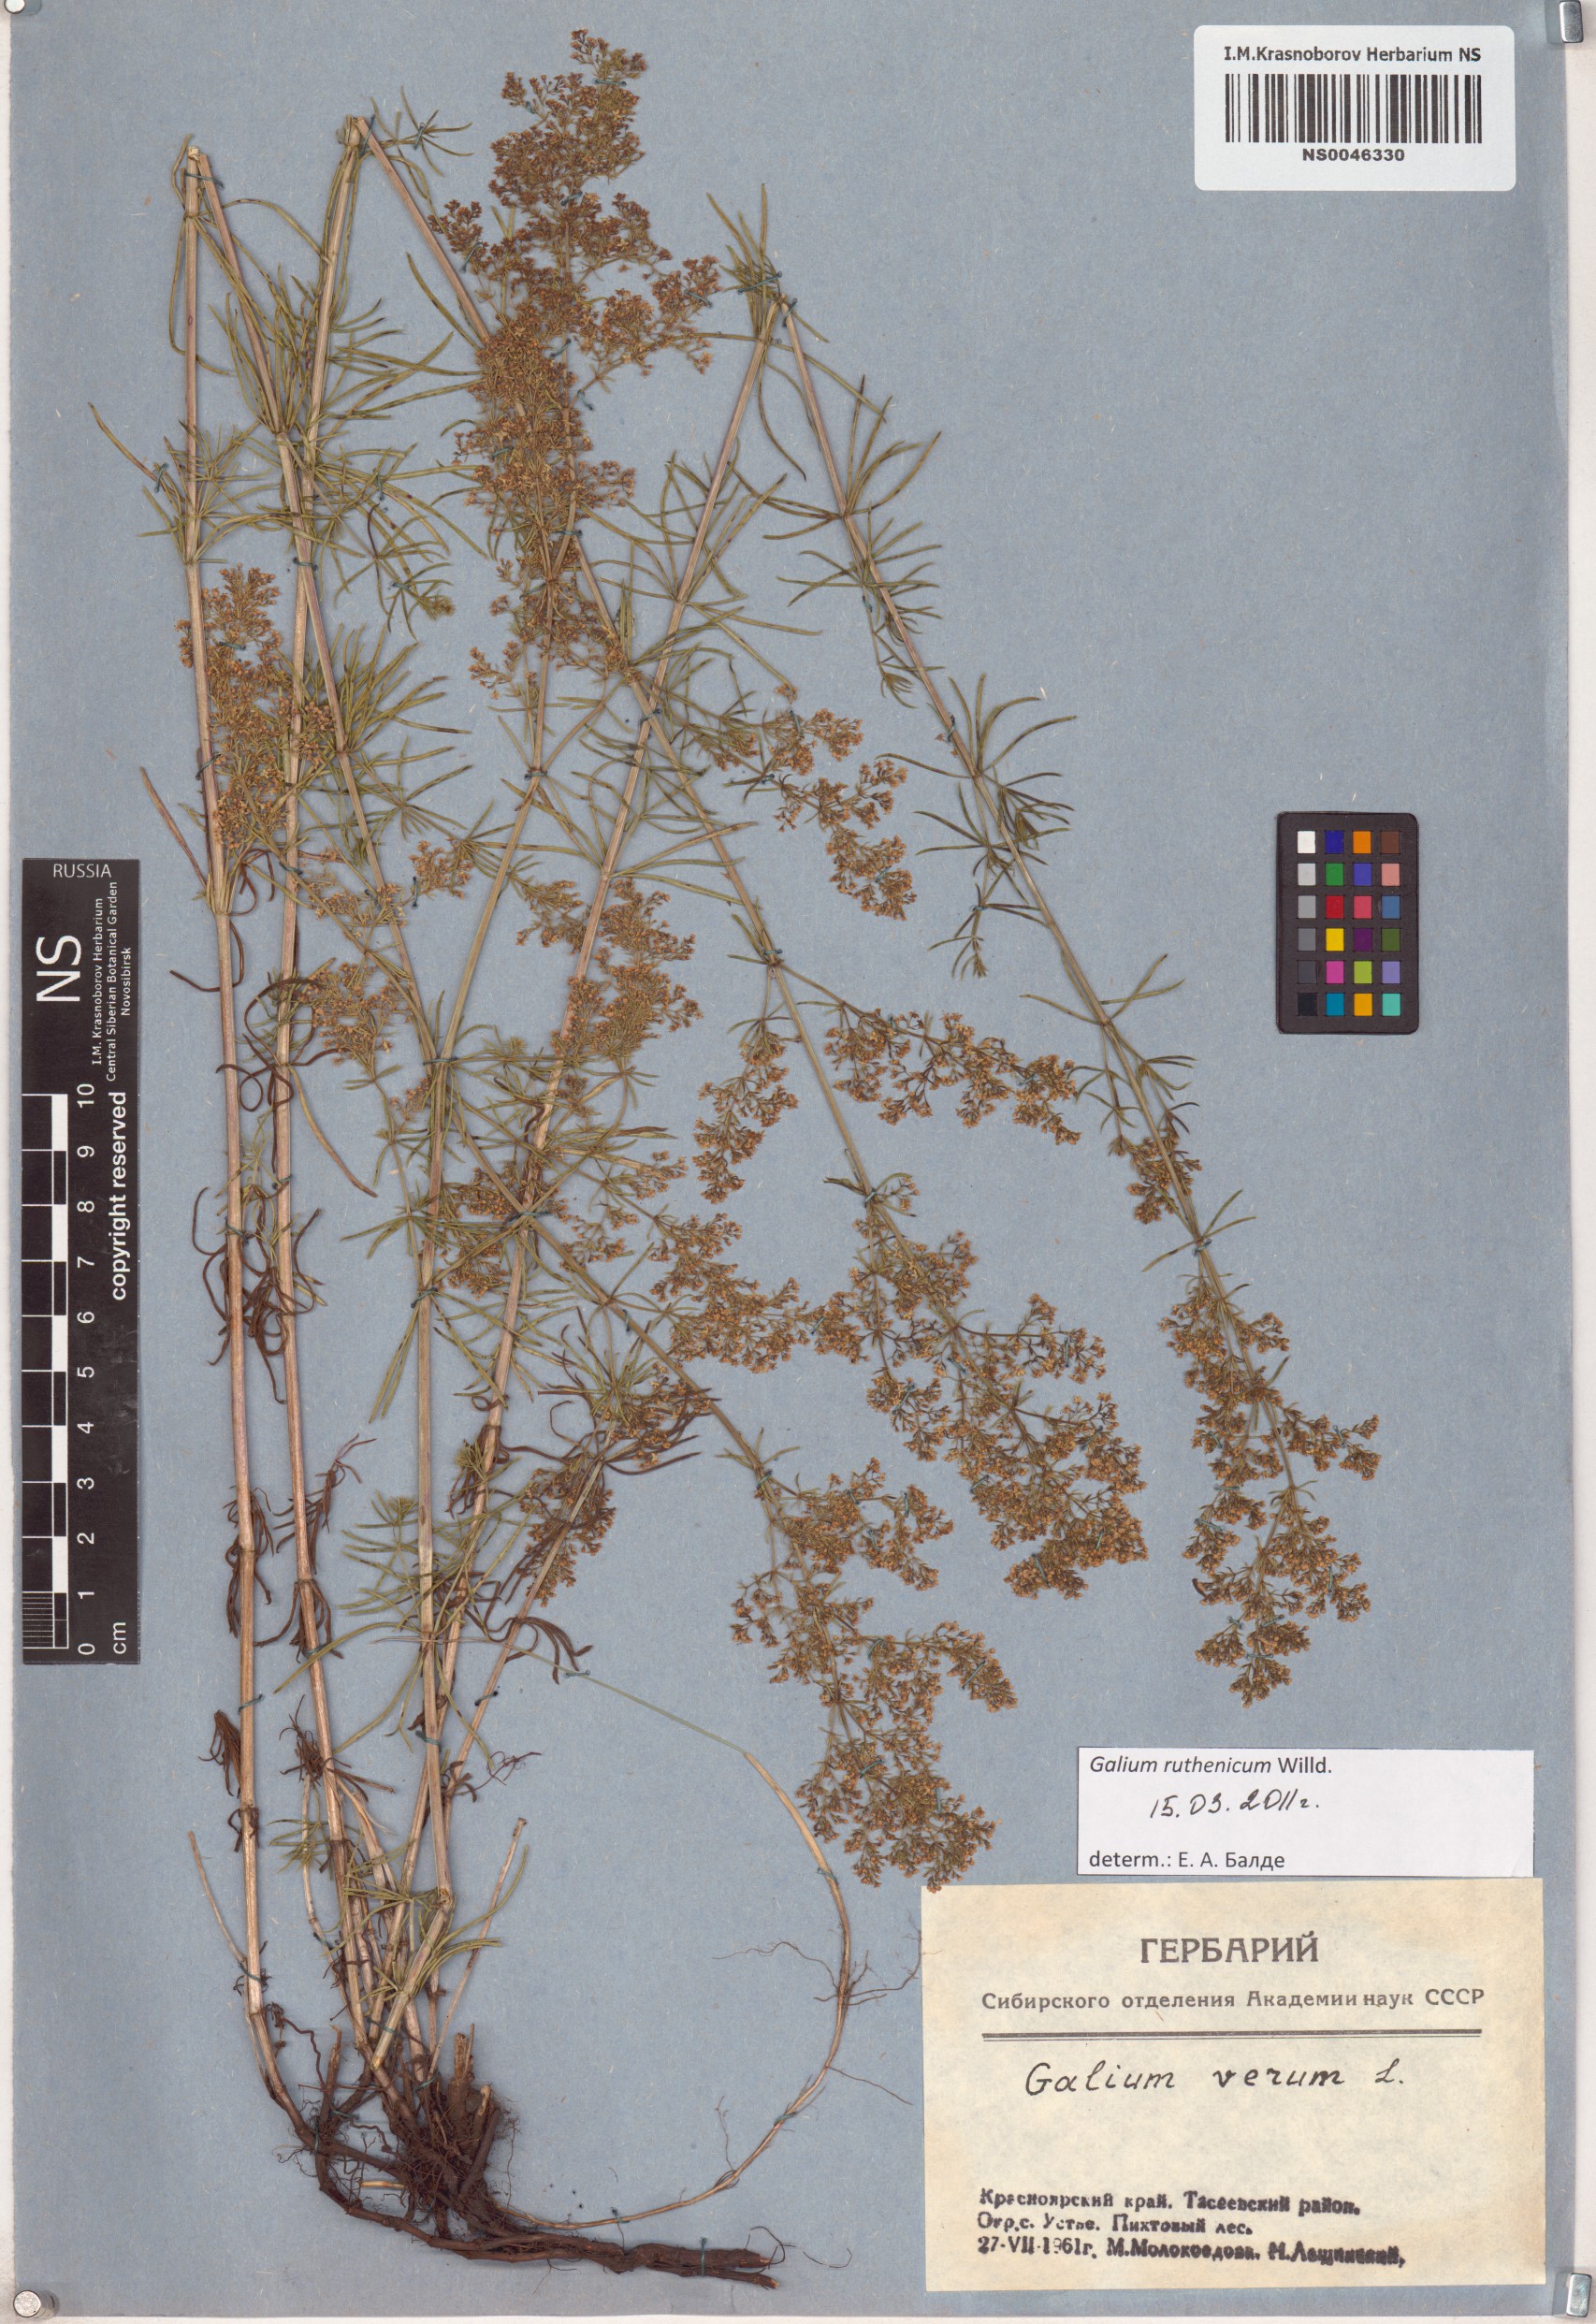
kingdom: Plantae
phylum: Tracheophyta
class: Magnoliopsida
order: Gentianales
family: Rubiaceae
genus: Galium
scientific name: Galium verum
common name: Lady's bedstraw
